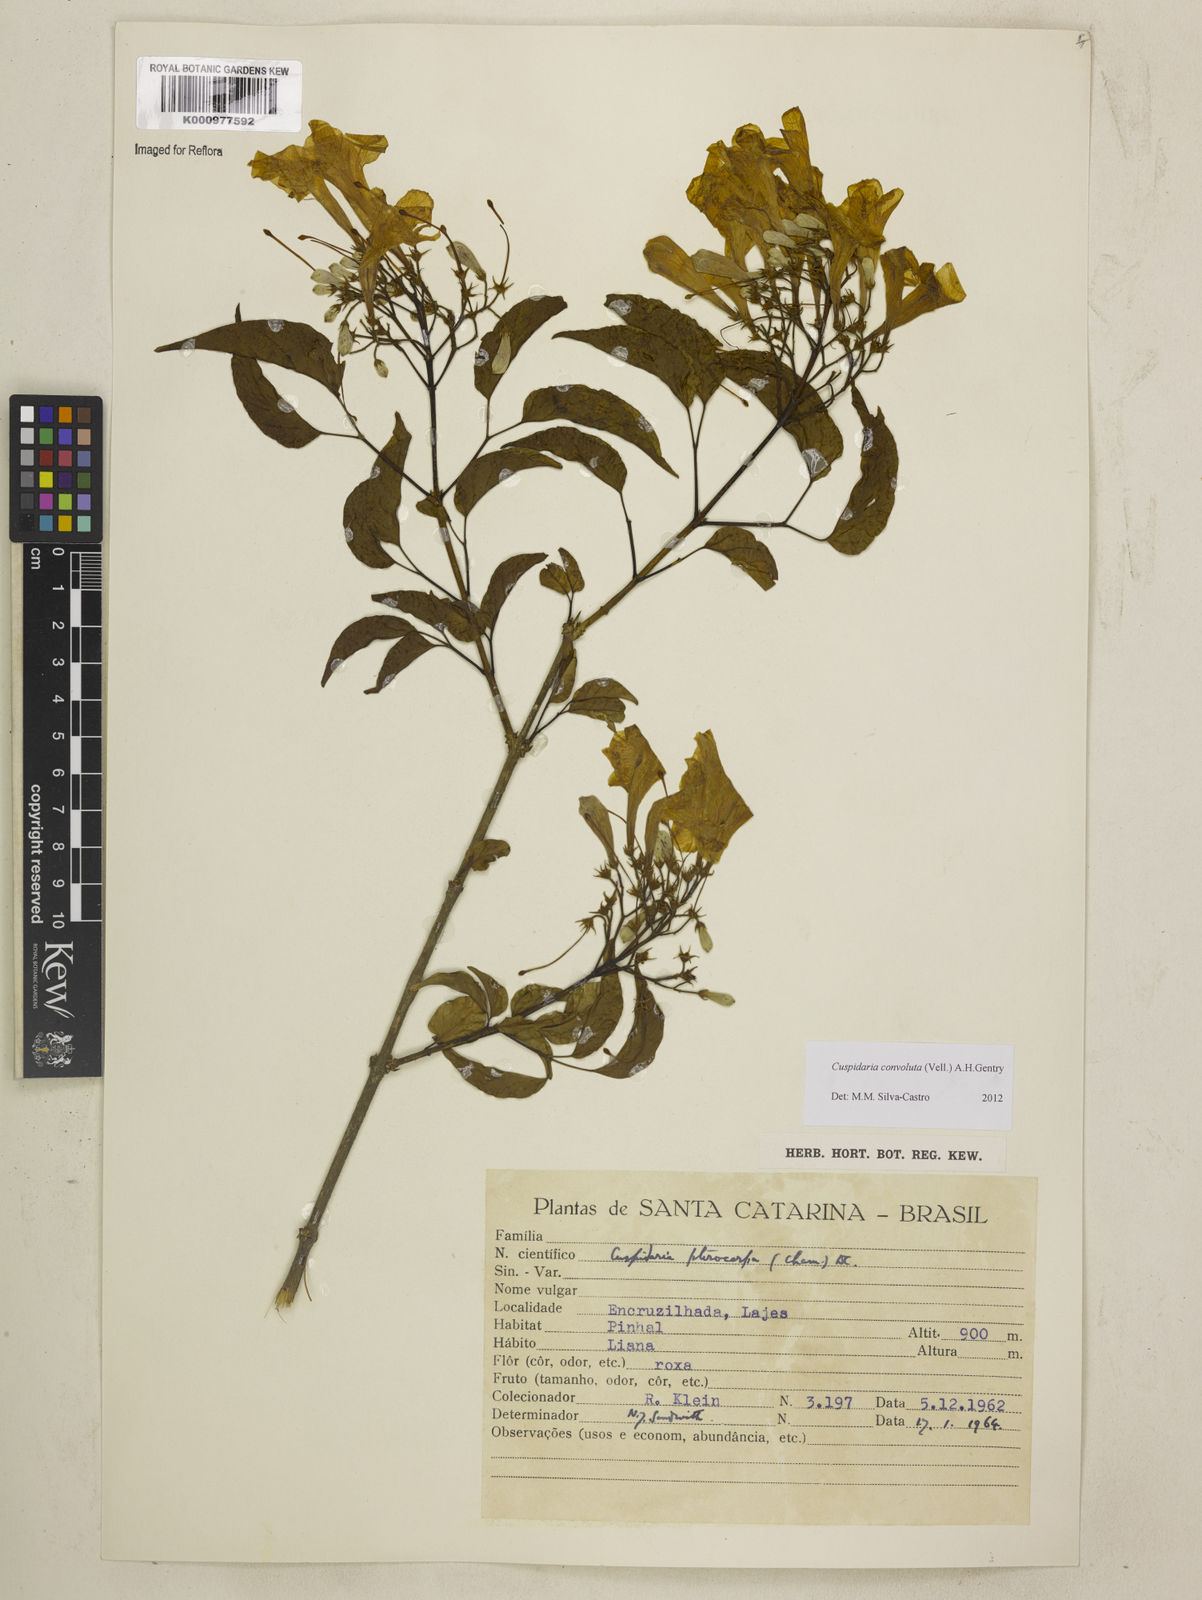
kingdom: Plantae
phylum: Tracheophyta
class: Magnoliopsida
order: Lamiales
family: Bignoniaceae
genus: Cuspidaria
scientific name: Cuspidaria convoluta
